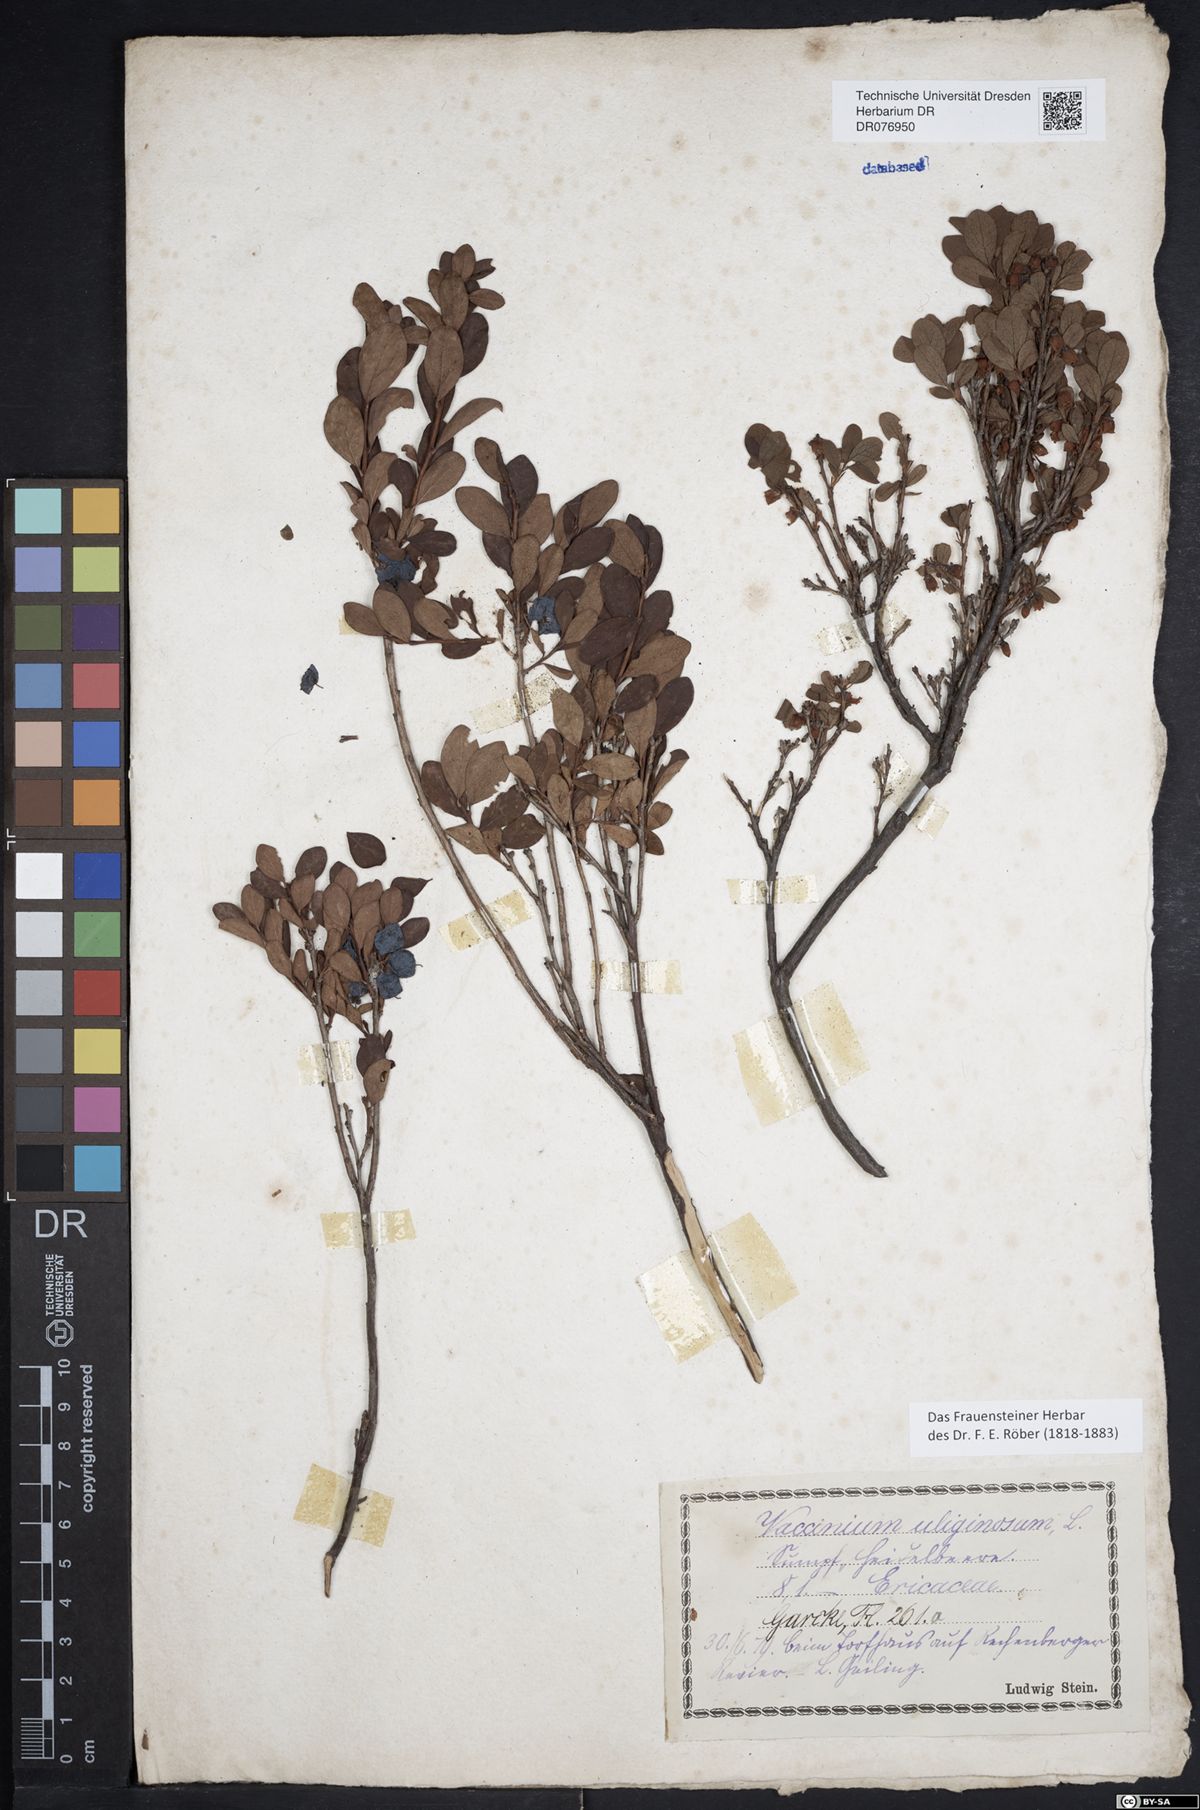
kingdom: Plantae
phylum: Tracheophyta
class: Magnoliopsida
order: Ericales
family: Ericaceae
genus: Vaccinium
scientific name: Vaccinium uliginosum
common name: Bog bilberry
